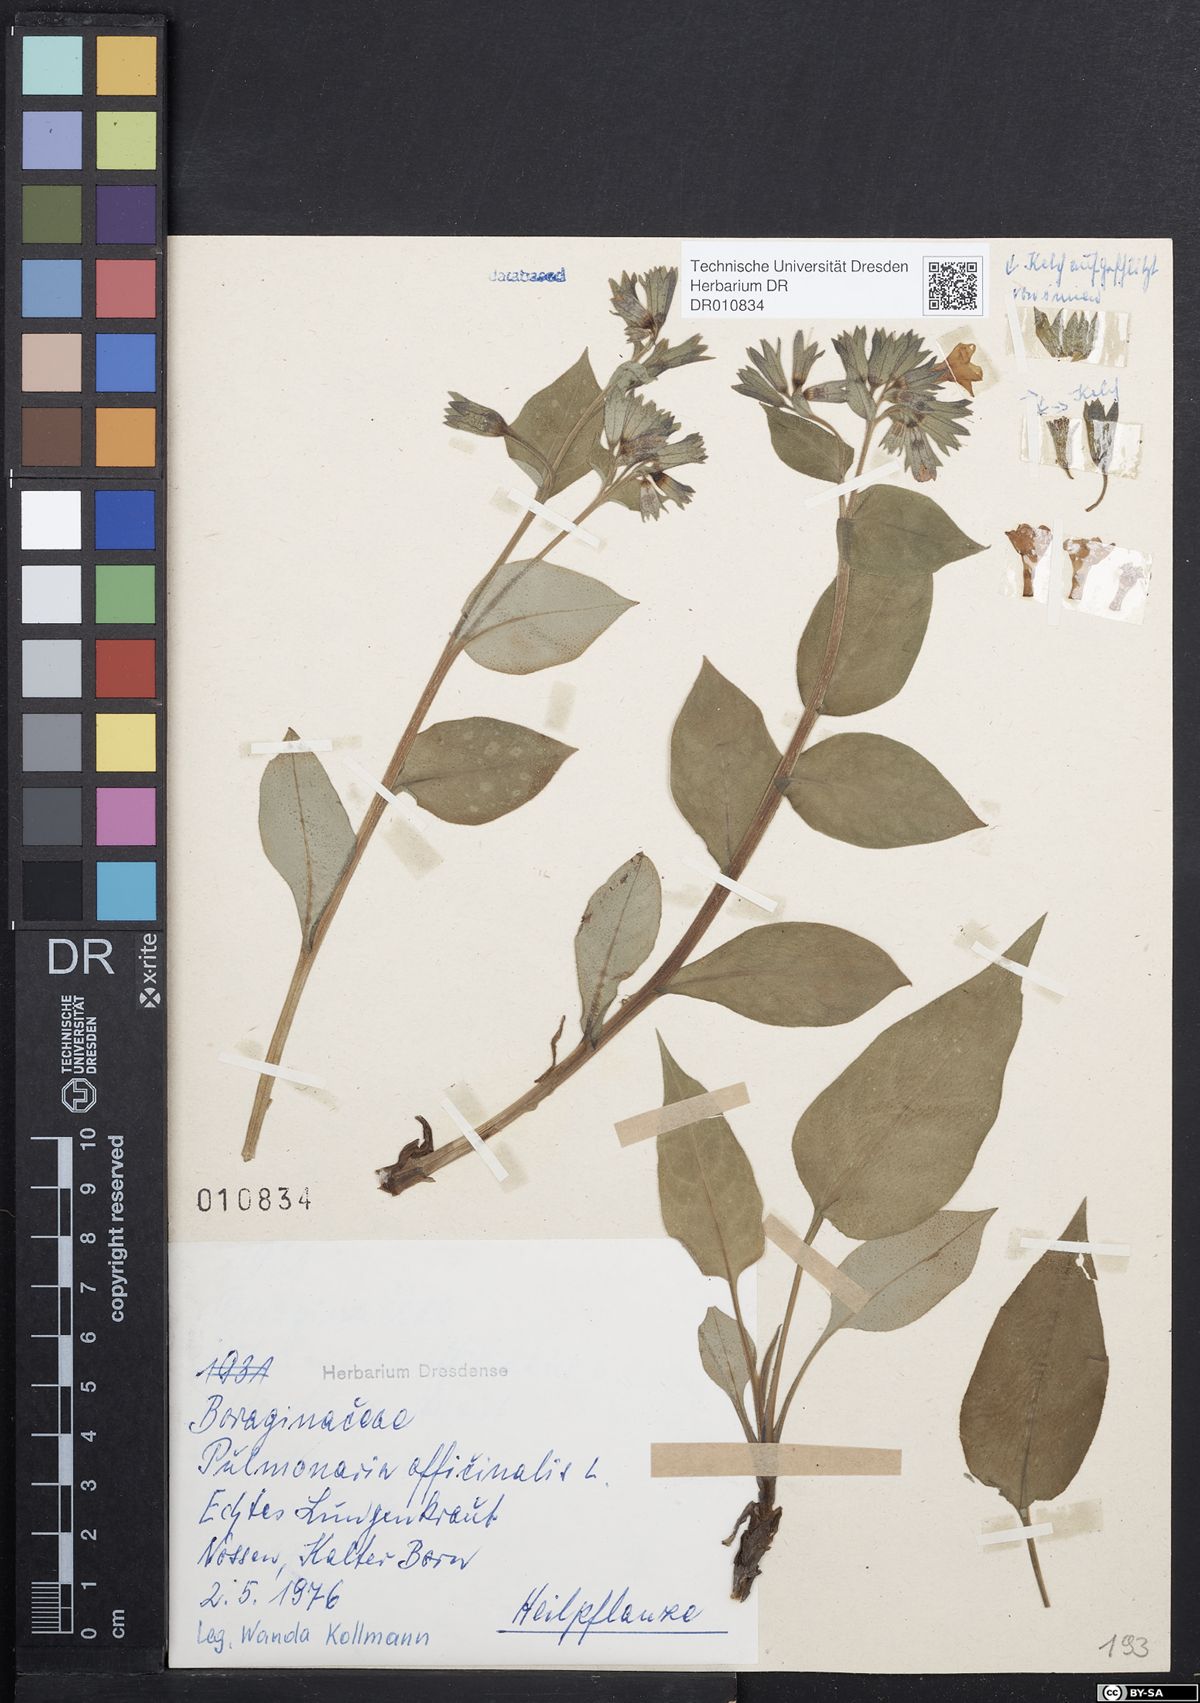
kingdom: Plantae
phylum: Tracheophyta
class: Magnoliopsida
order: Boraginales
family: Boraginaceae
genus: Pulmonaria
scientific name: Pulmonaria officinalis
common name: Lungwort
